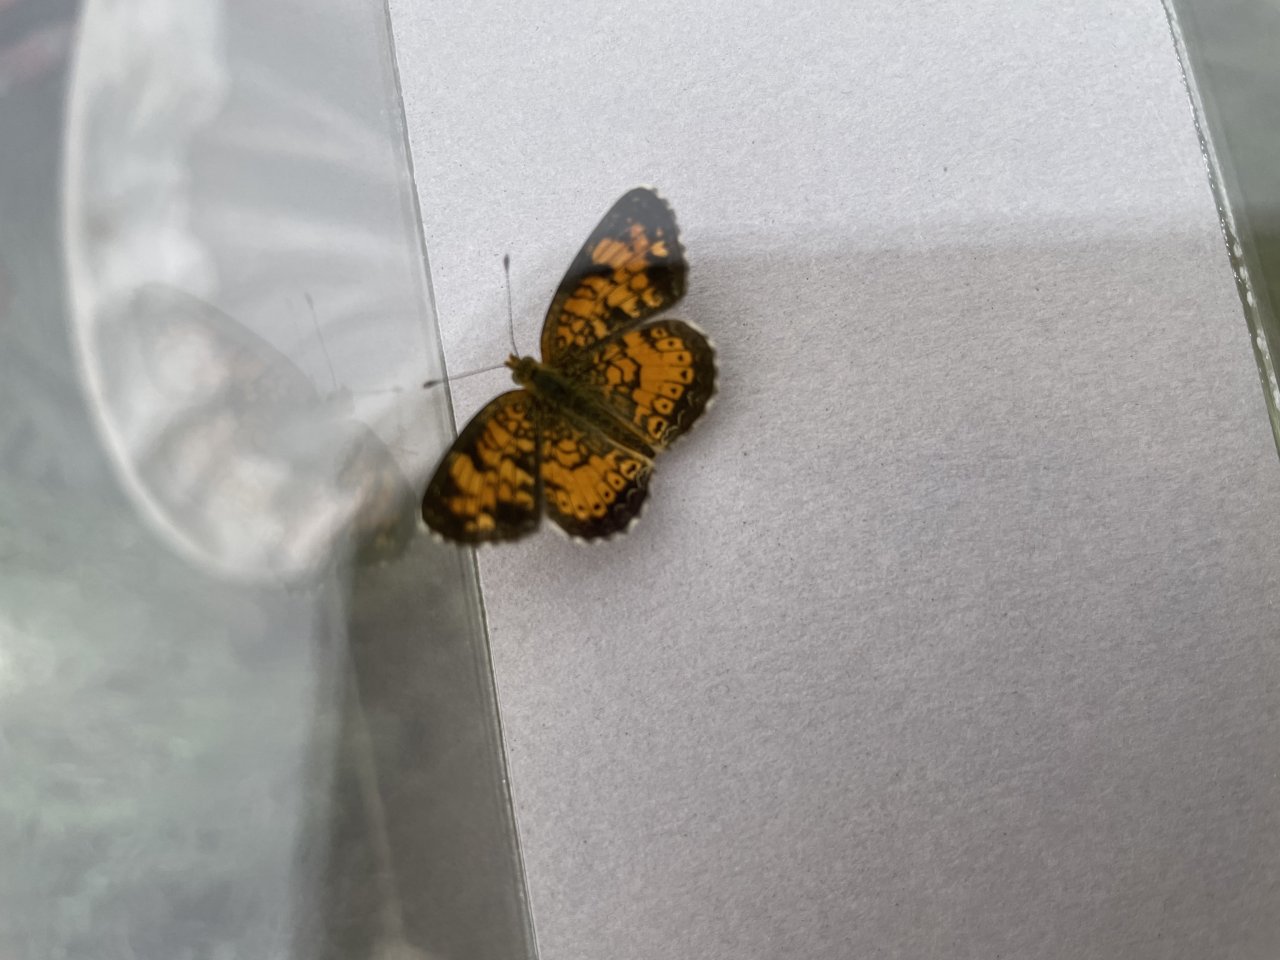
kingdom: Animalia
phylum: Arthropoda
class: Insecta
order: Lepidoptera
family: Nymphalidae
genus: Phyciodes
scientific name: Phyciodes tharos
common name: Northern Crescent
